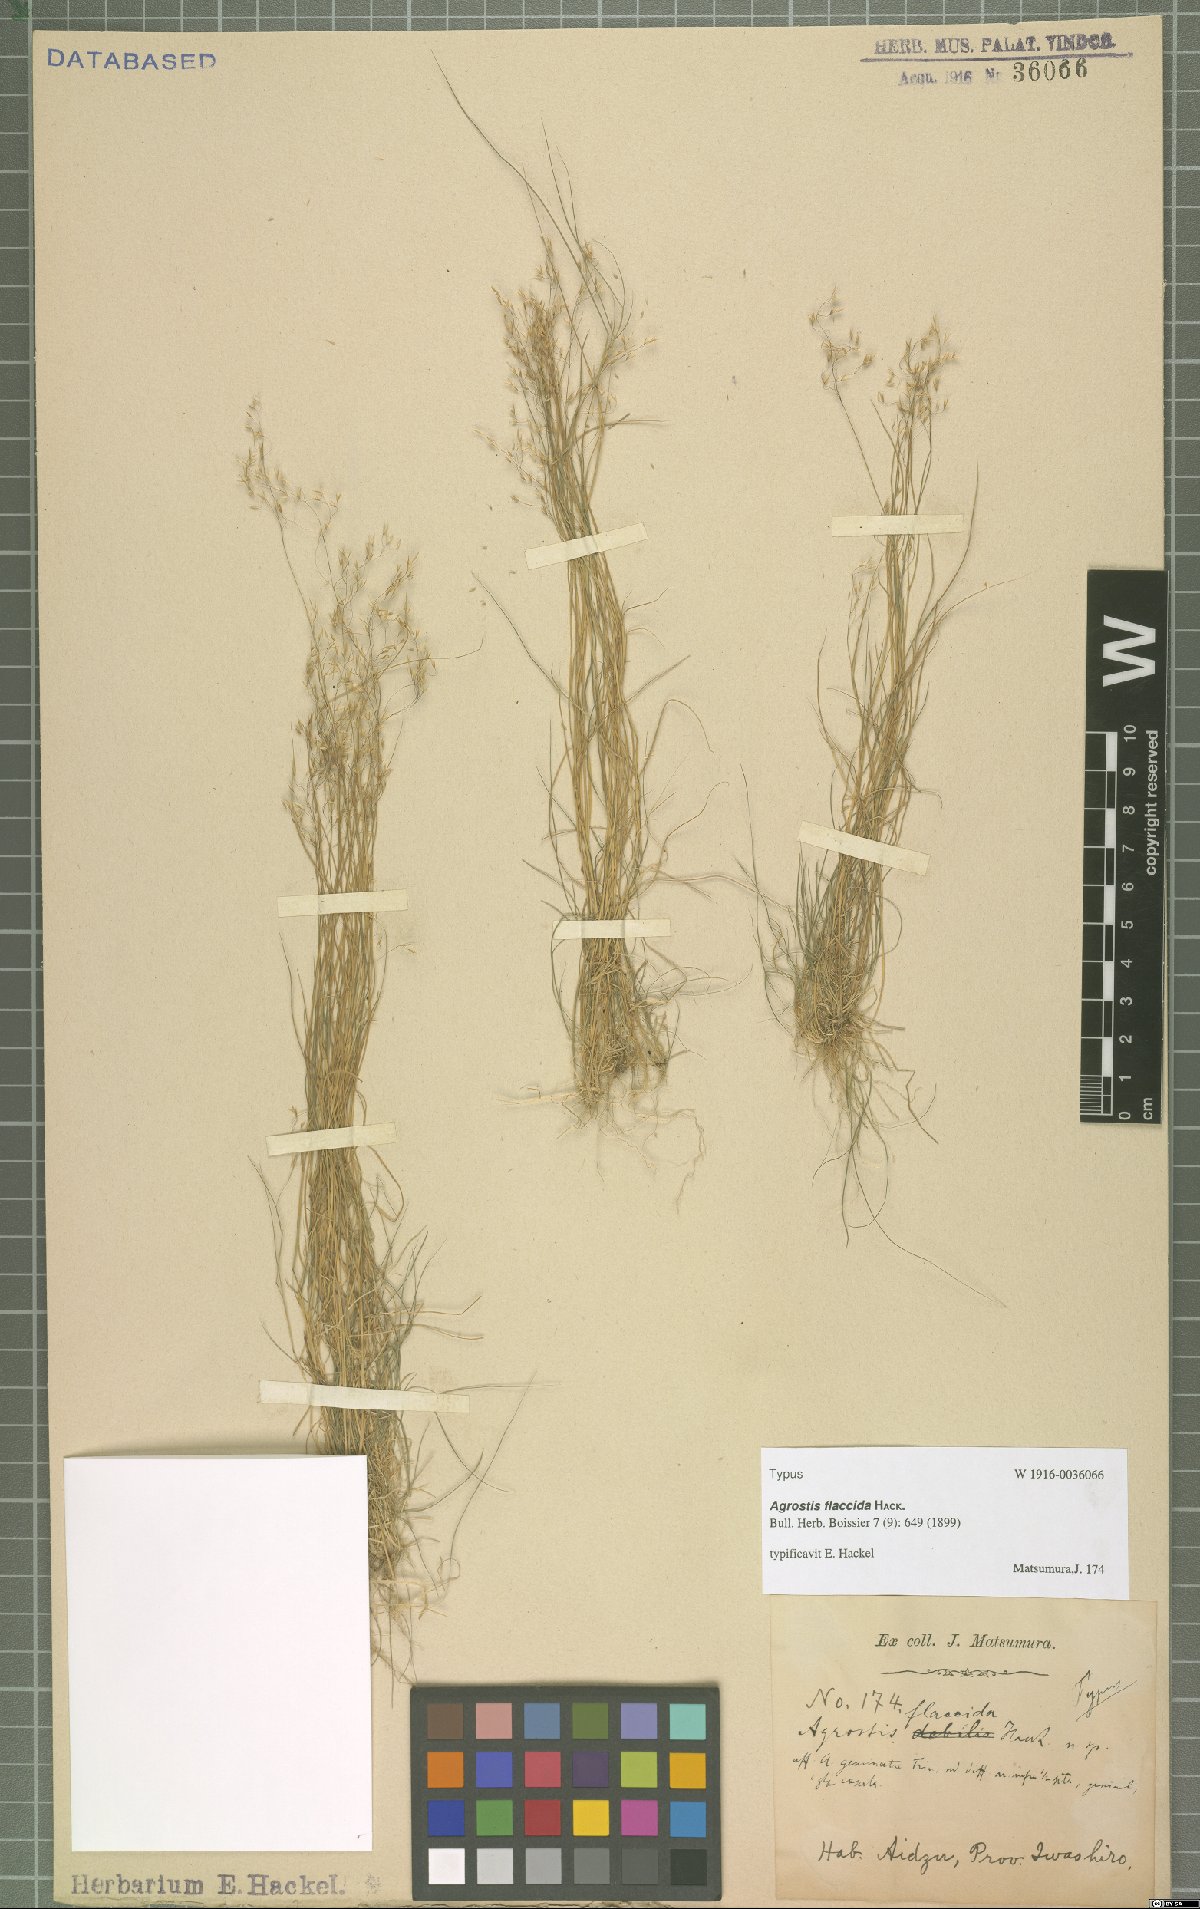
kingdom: Plantae
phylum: Tracheophyta
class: Liliopsida
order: Poales
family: Poaceae
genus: Agrostis
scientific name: Agrostis flaccida
